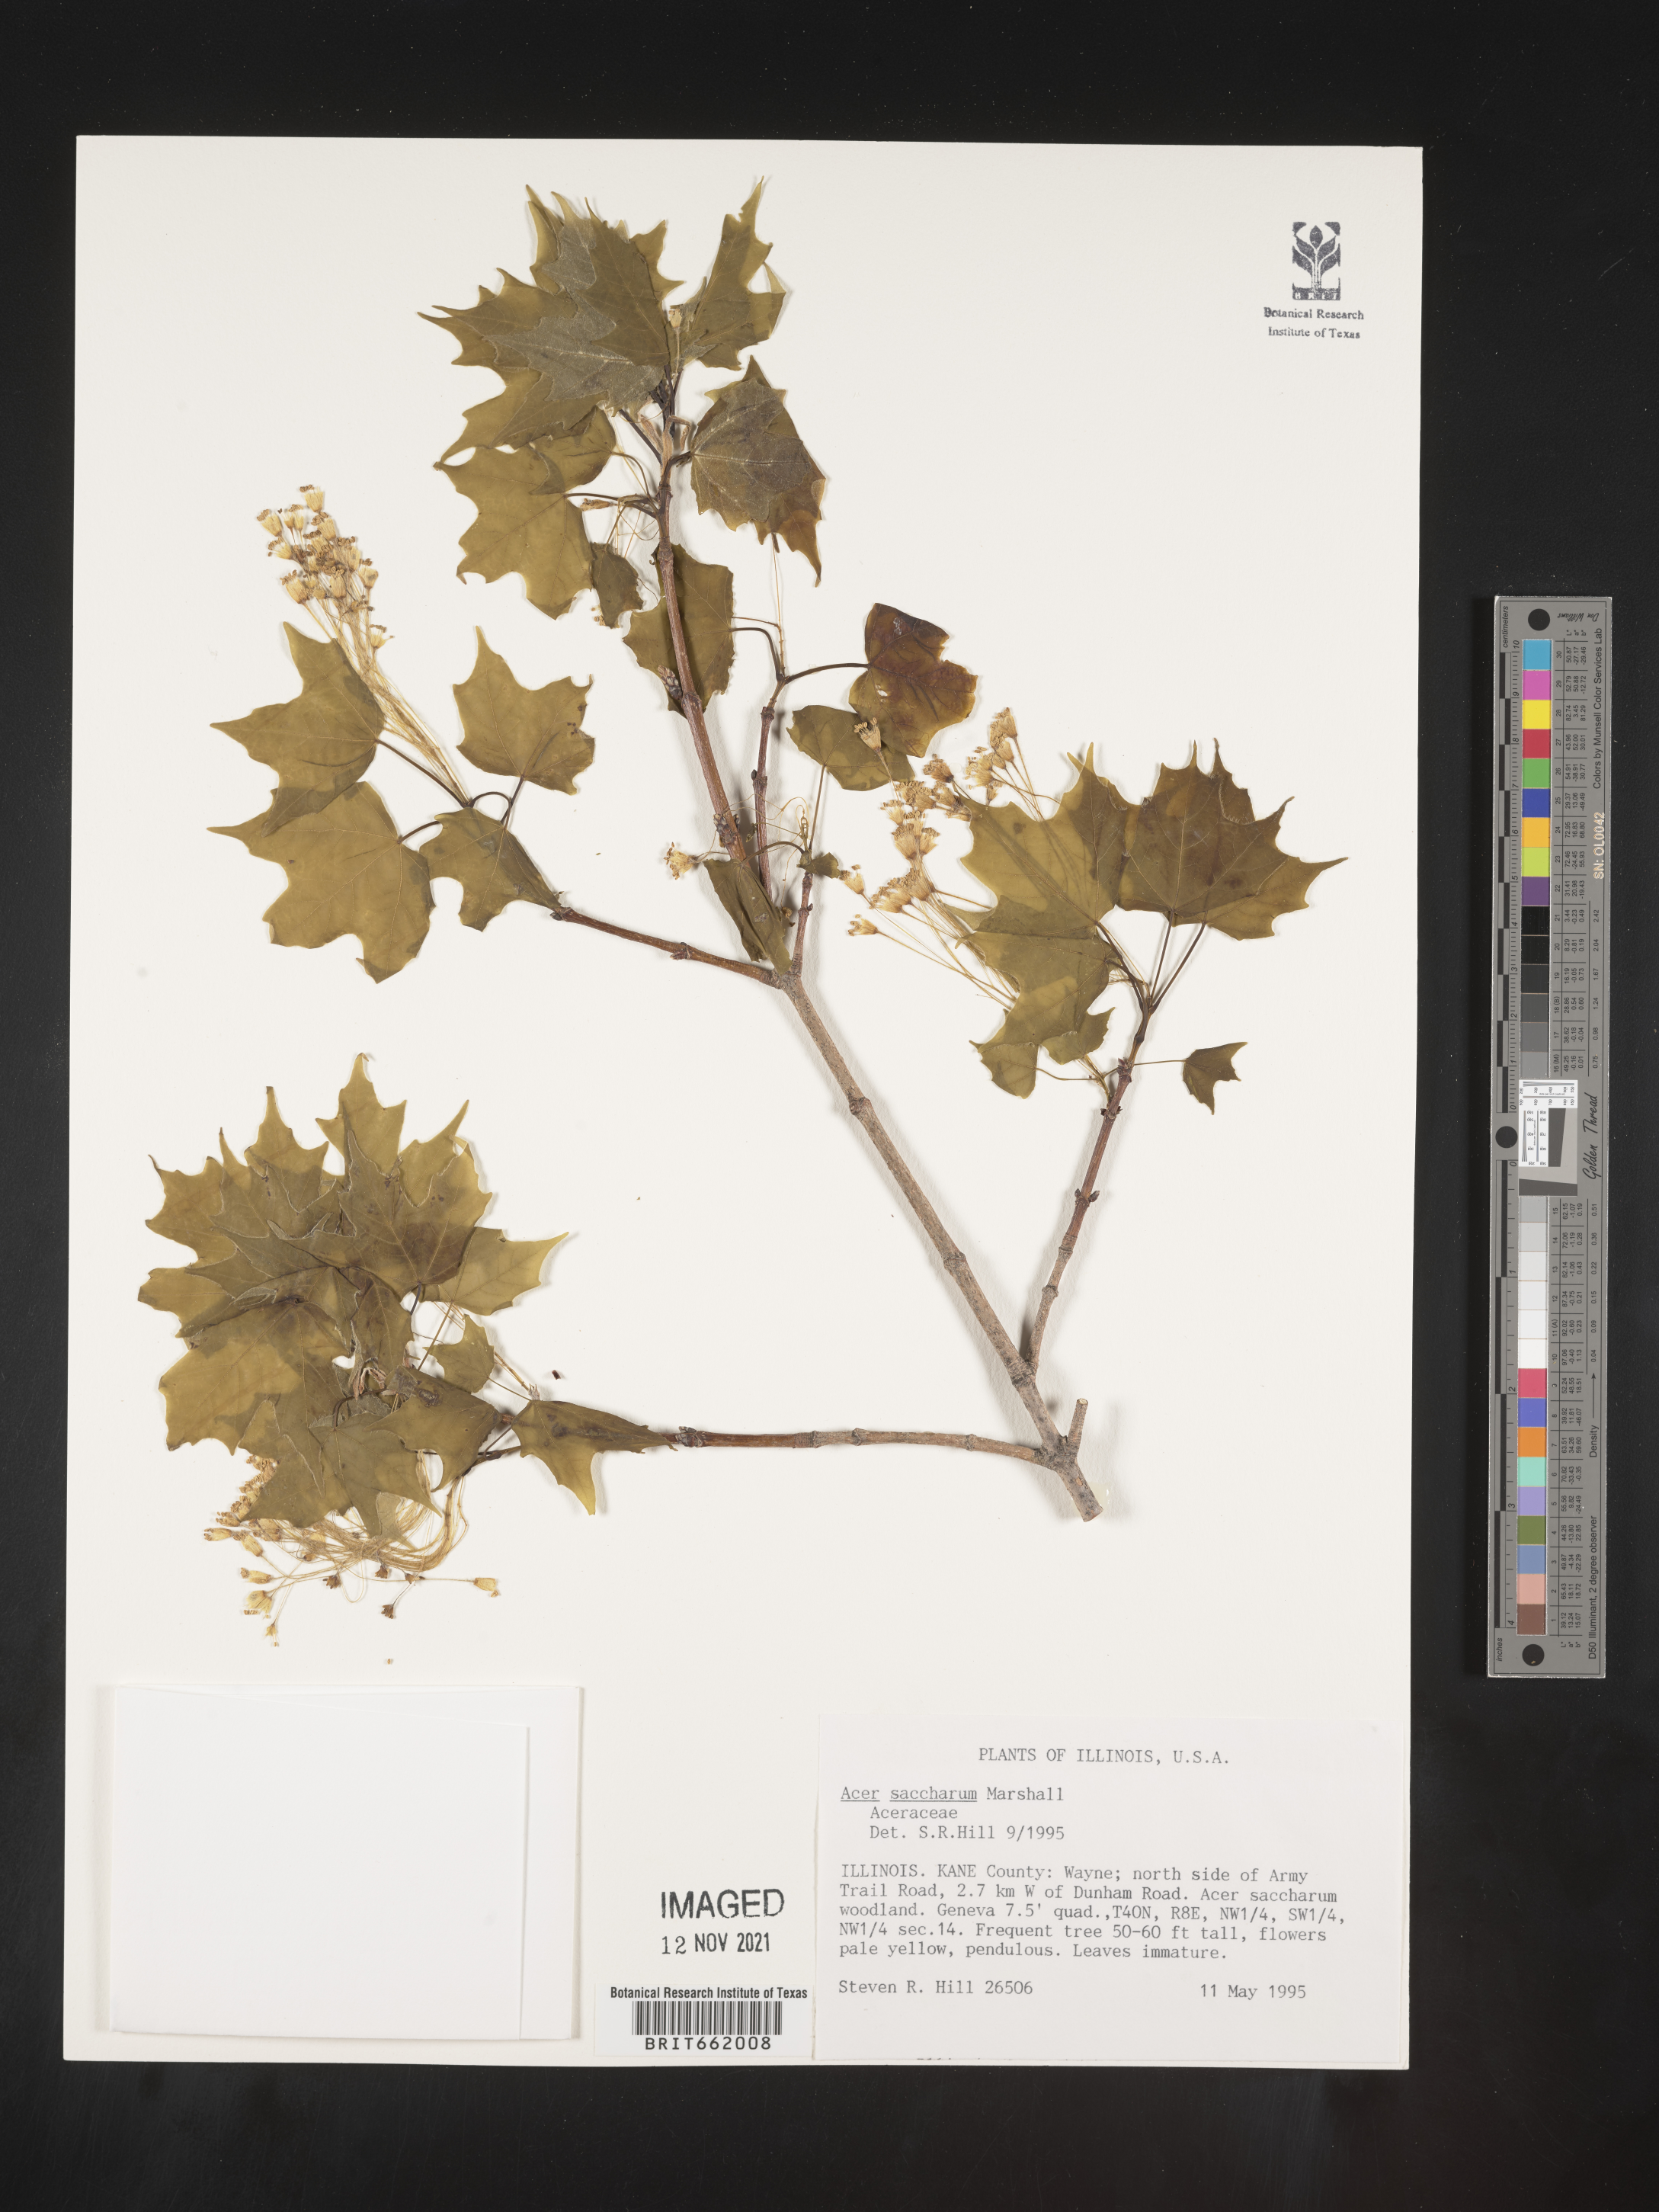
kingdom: Plantae
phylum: Tracheophyta
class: Magnoliopsida
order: Sapindales
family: Sapindaceae
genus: Acer
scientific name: Acer saccharum
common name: Sugar maple
